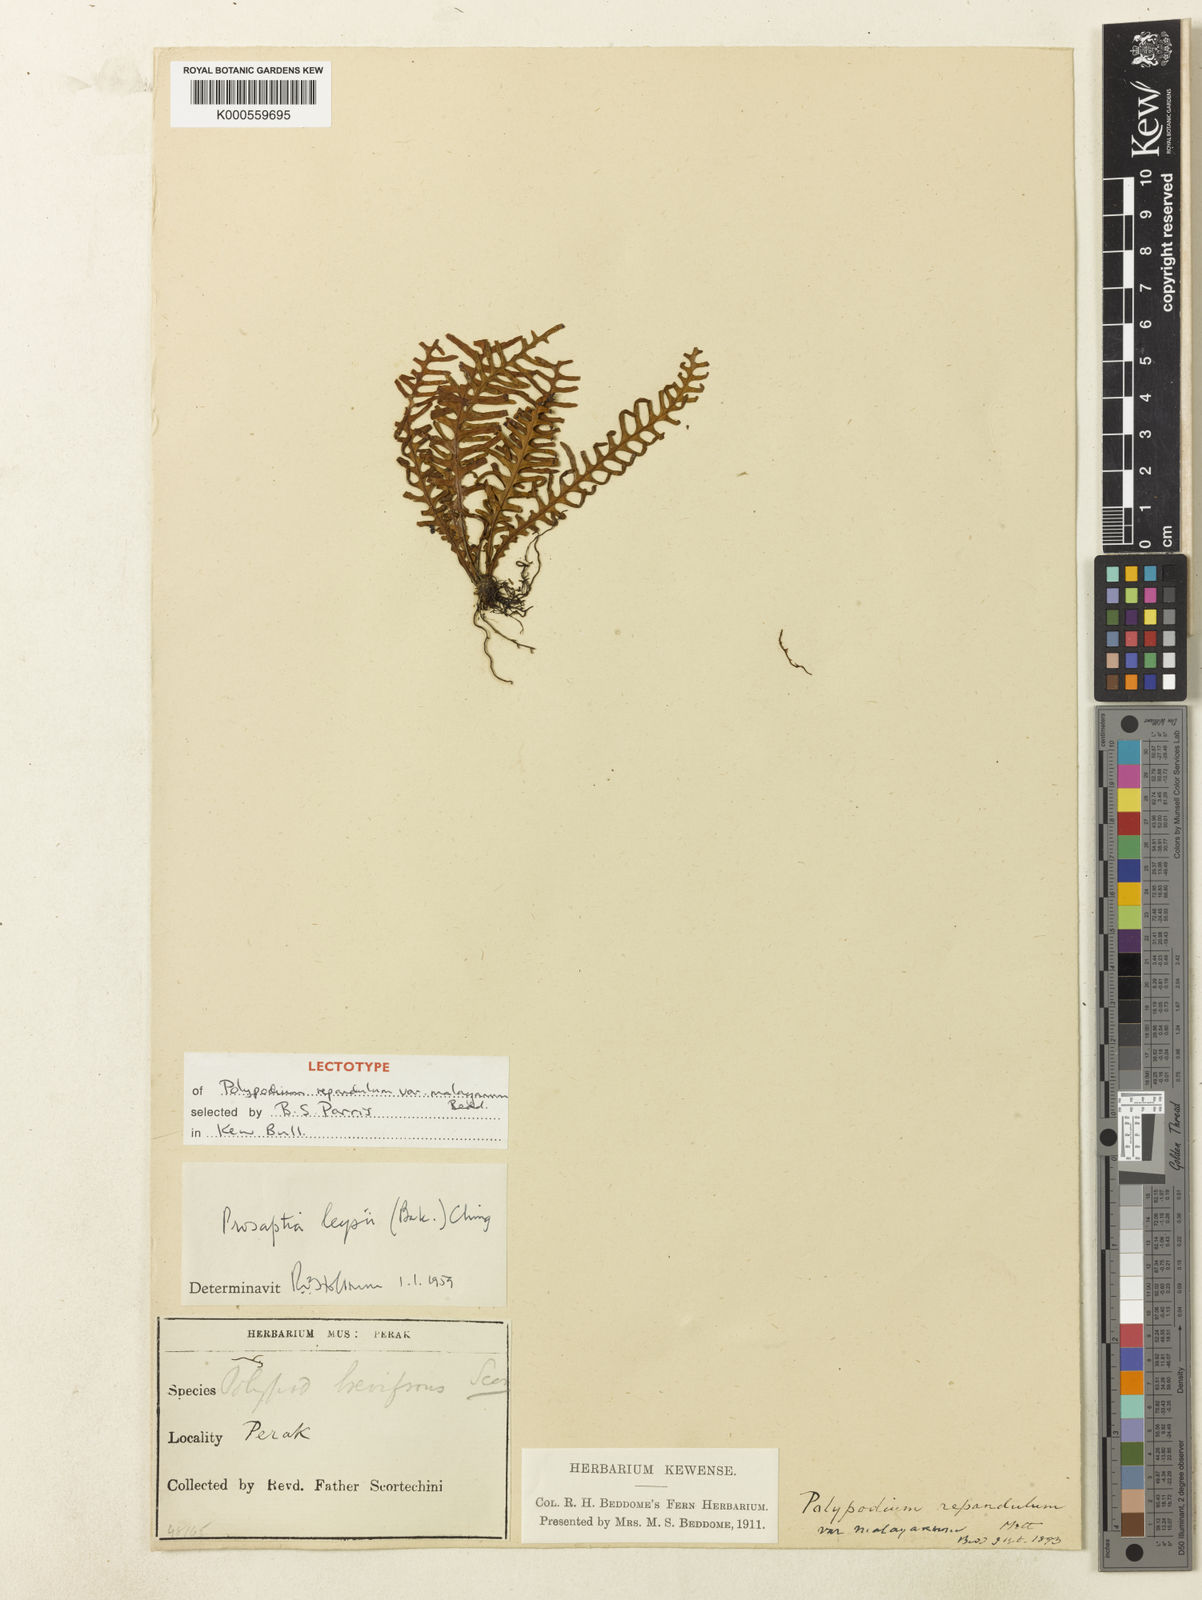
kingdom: Plantae
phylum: Tracheophyta
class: Polypodiopsida
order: Polypodiales
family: Polypodiaceae
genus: Prosaptia
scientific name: Prosaptia pectinata
